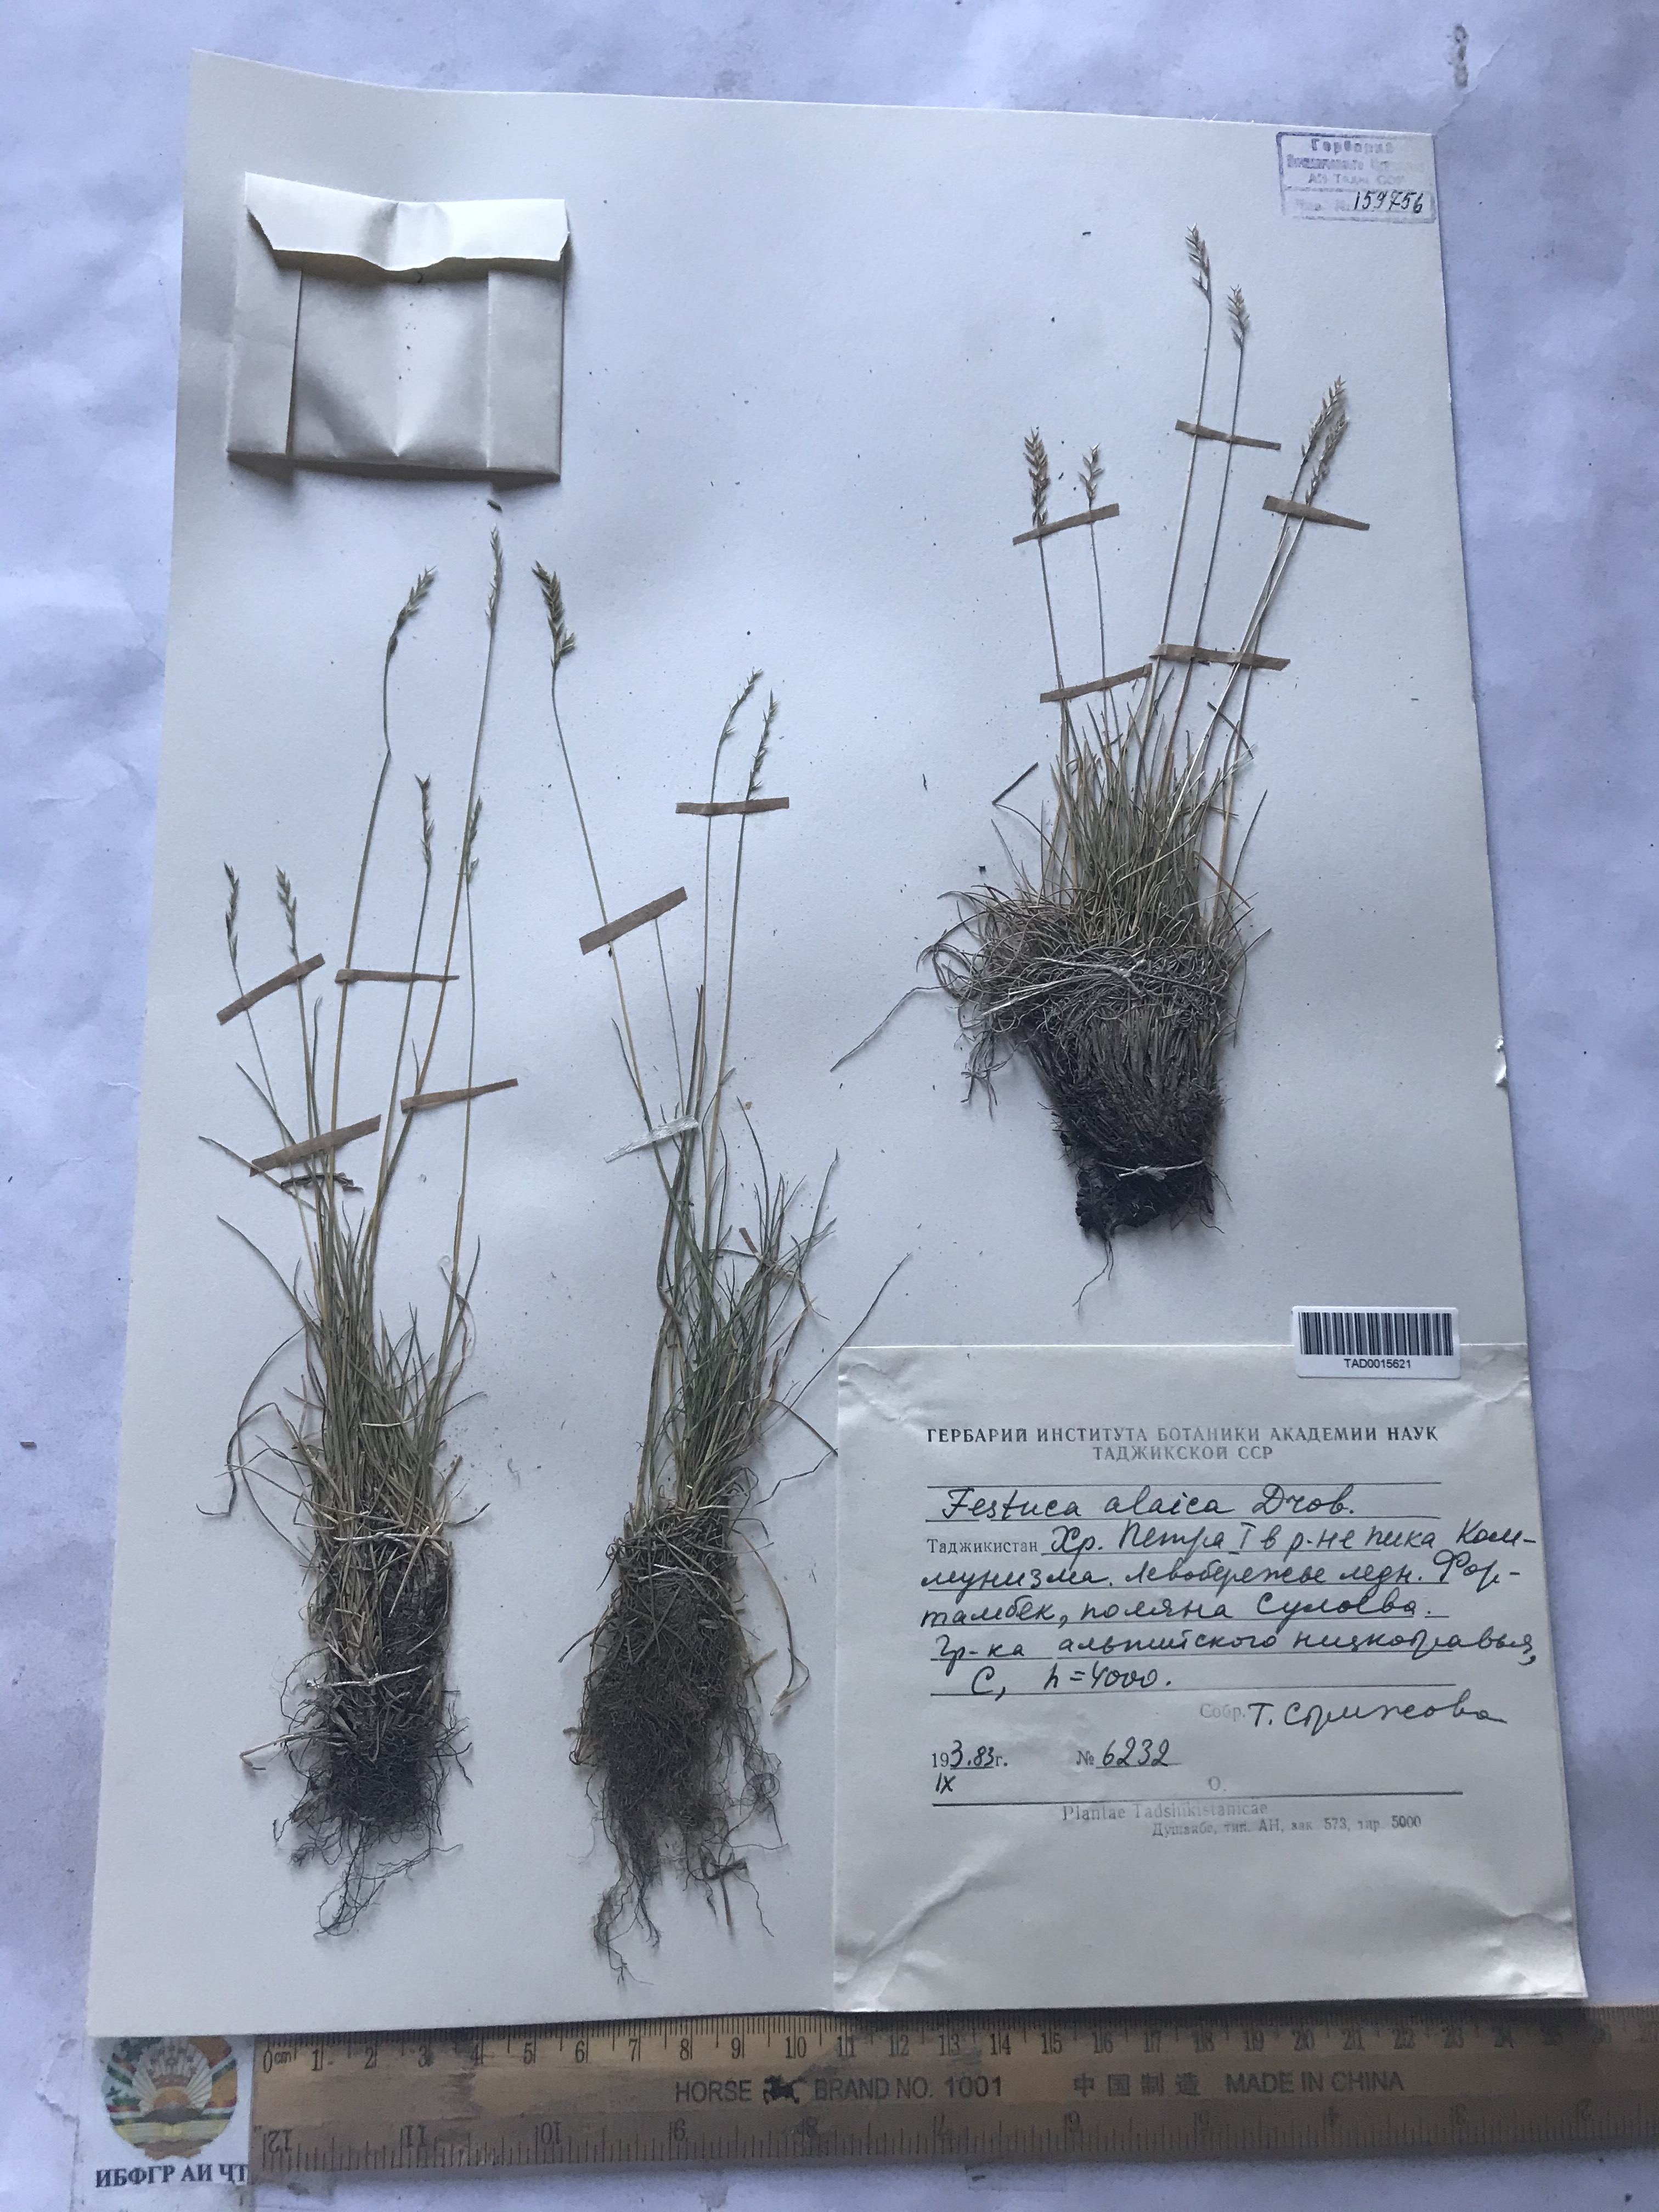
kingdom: Plantae
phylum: Tracheophyta
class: Liliopsida
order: Poales
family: Poaceae
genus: Festuca
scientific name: Festuca alaica
